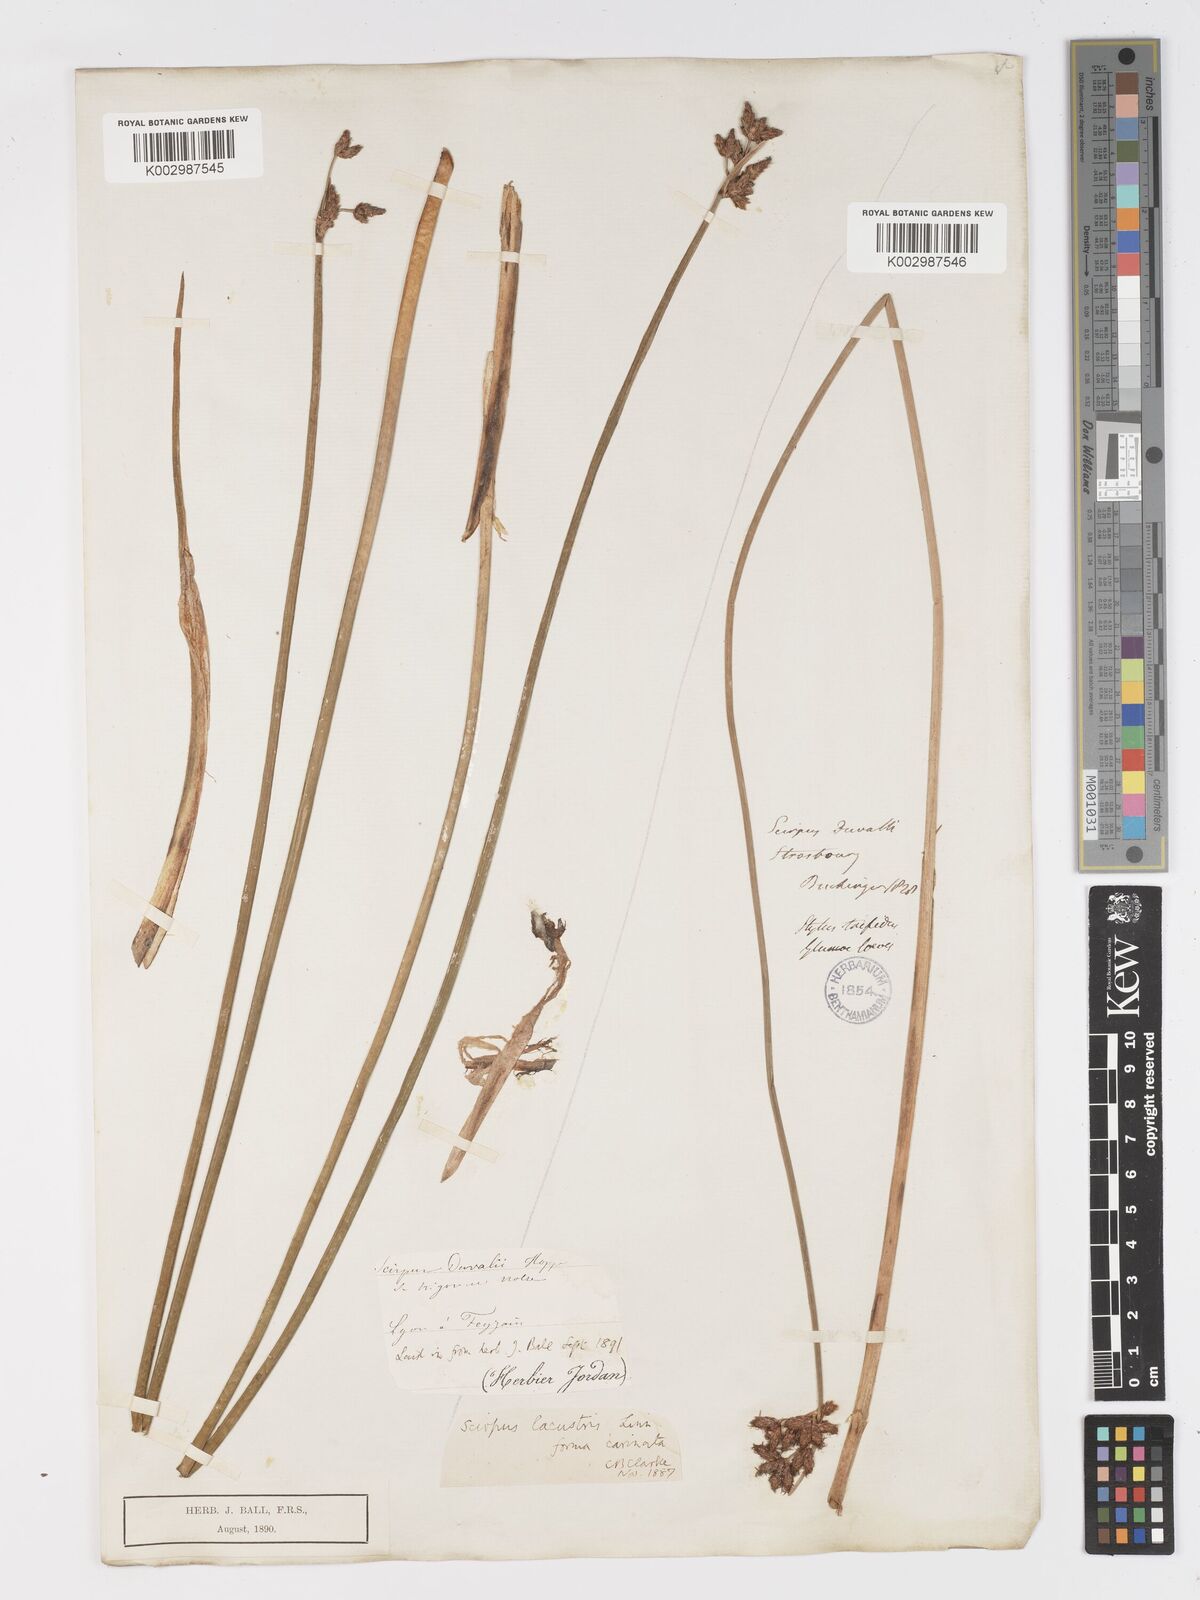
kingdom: Plantae
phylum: Tracheophyta
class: Liliopsida
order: Poales
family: Cyperaceae
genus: Schoenoplectus
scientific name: Schoenoplectus lacustris
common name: Common club-rush
